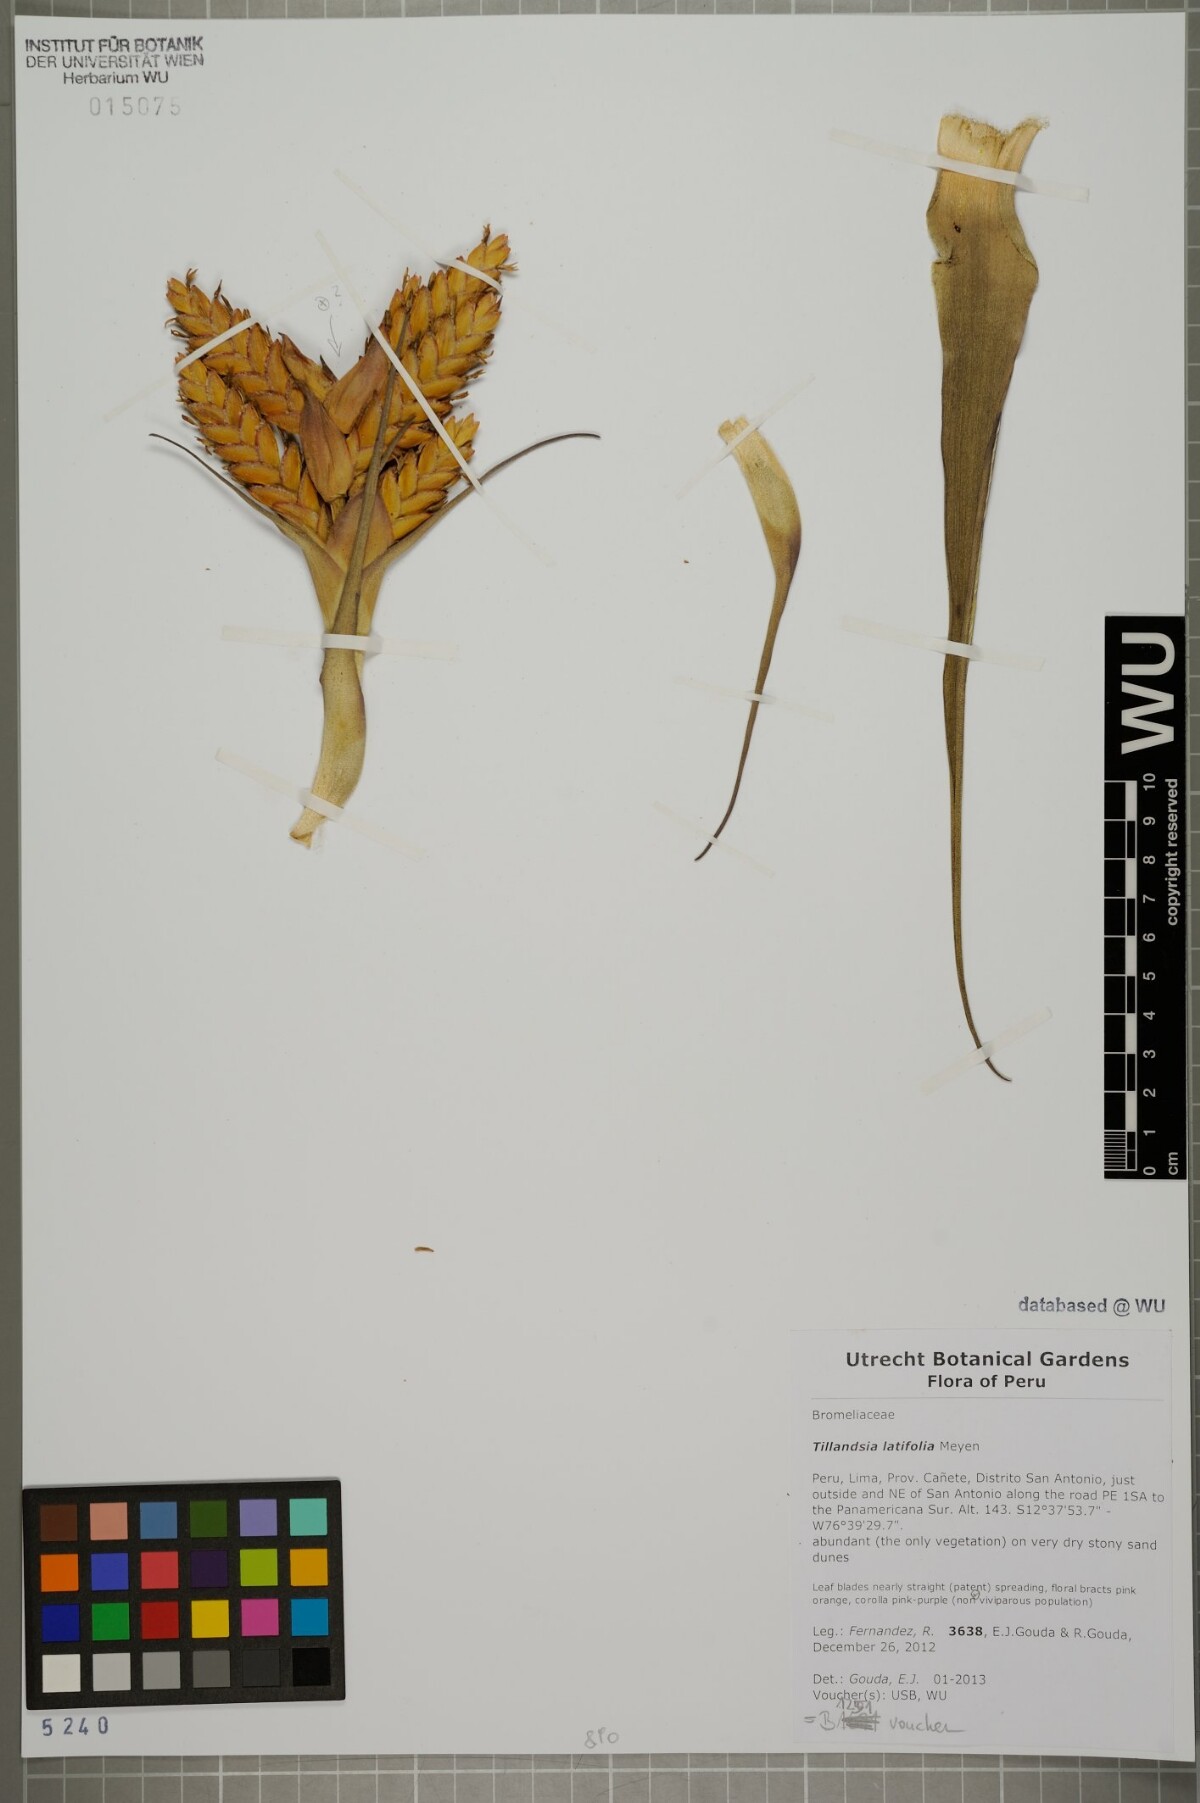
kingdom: Plantae
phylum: Tracheophyta
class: Liliopsida
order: Poales
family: Bromeliaceae
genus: Tillandsia
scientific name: Tillandsia latifolia
